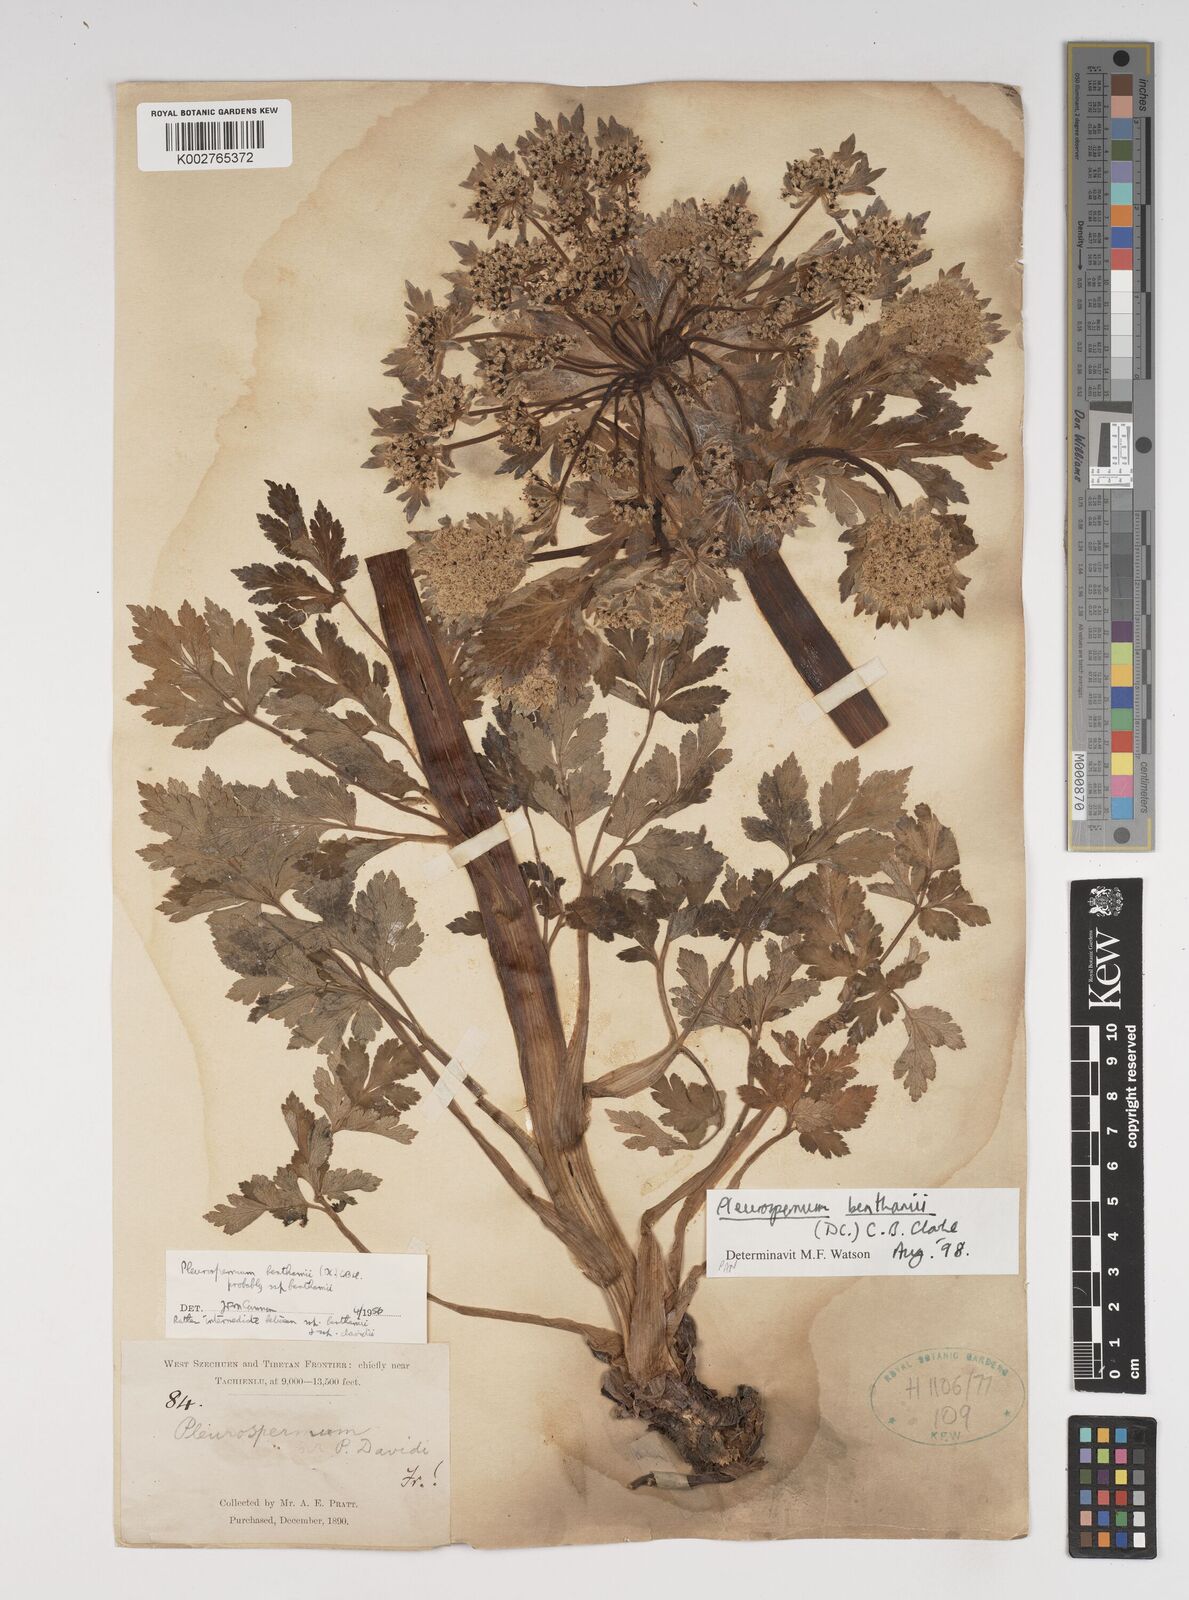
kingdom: Plantae
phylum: Tracheophyta
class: Magnoliopsida
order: Apiales
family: Apiaceae
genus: Hymenidium
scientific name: Hymenidium benthamii
